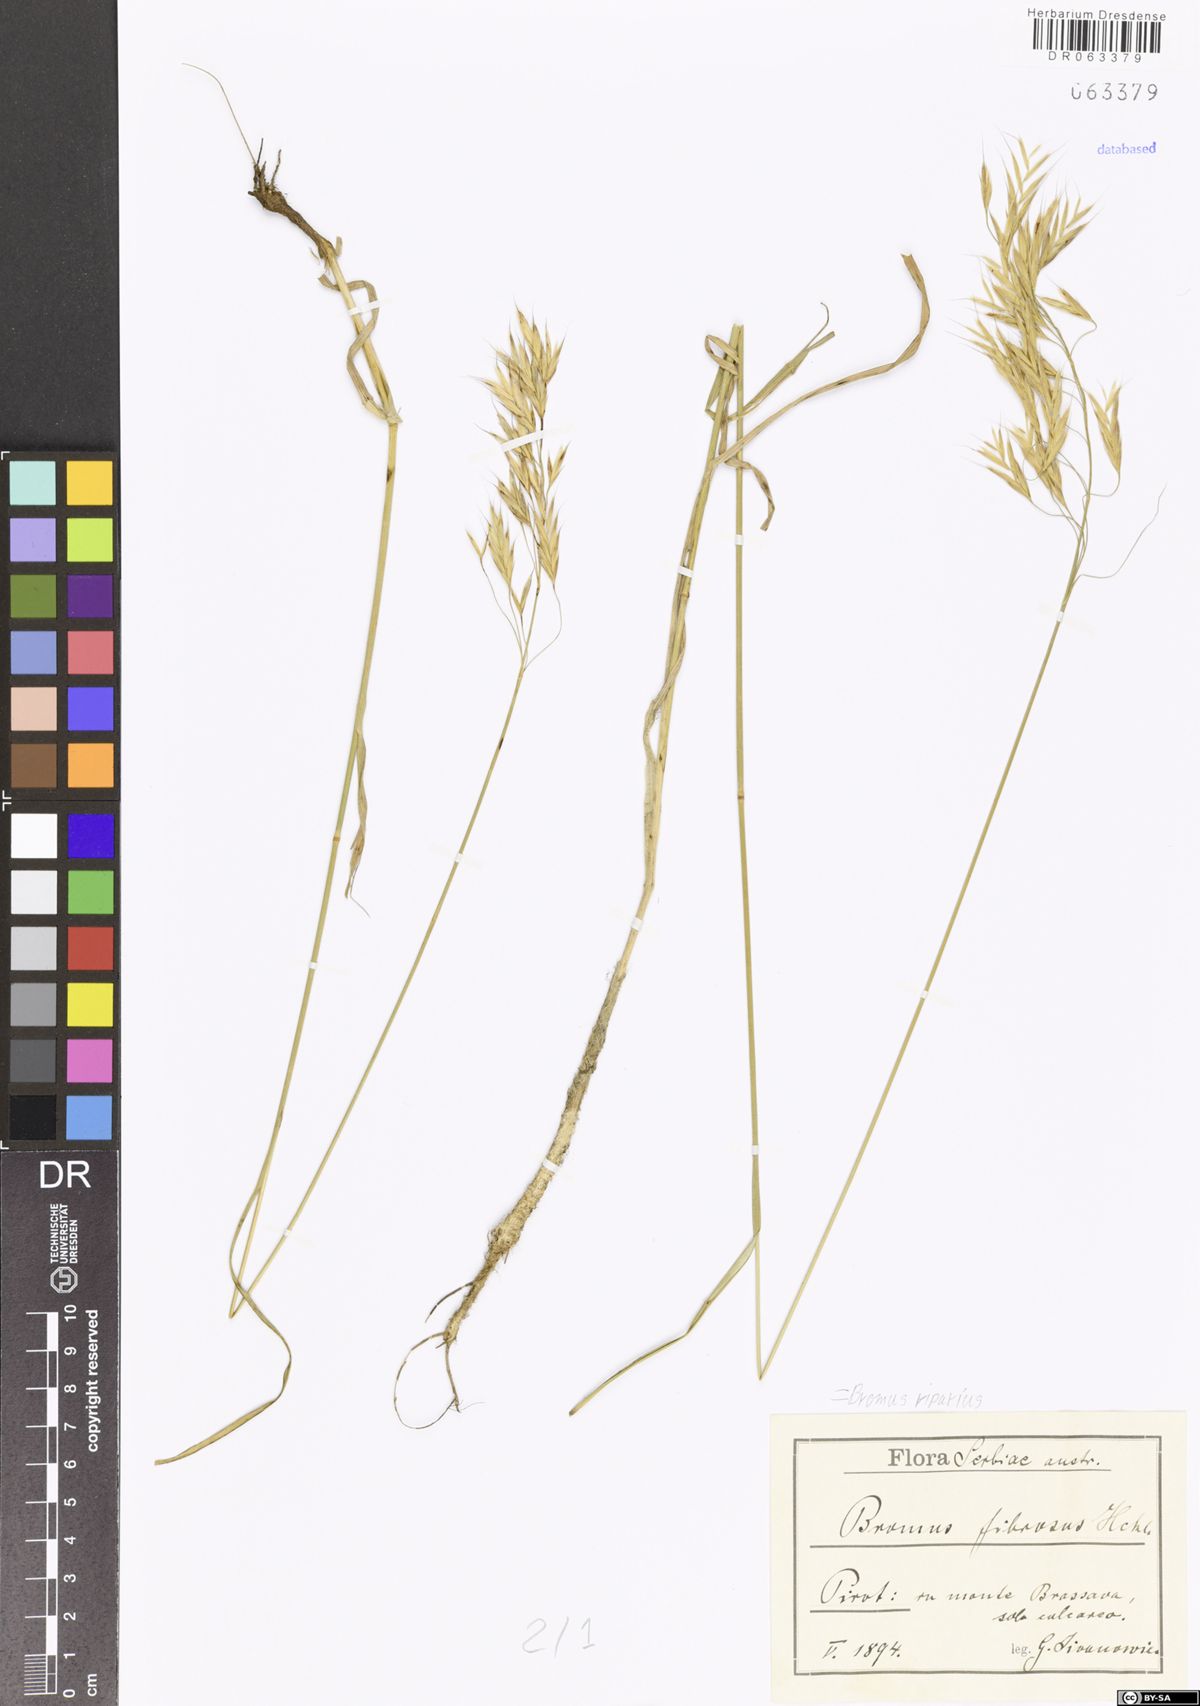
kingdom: Plantae
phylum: Tracheophyta
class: Liliopsida
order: Poales
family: Poaceae
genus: Bromus
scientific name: Bromus riparius
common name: Meadow brome
